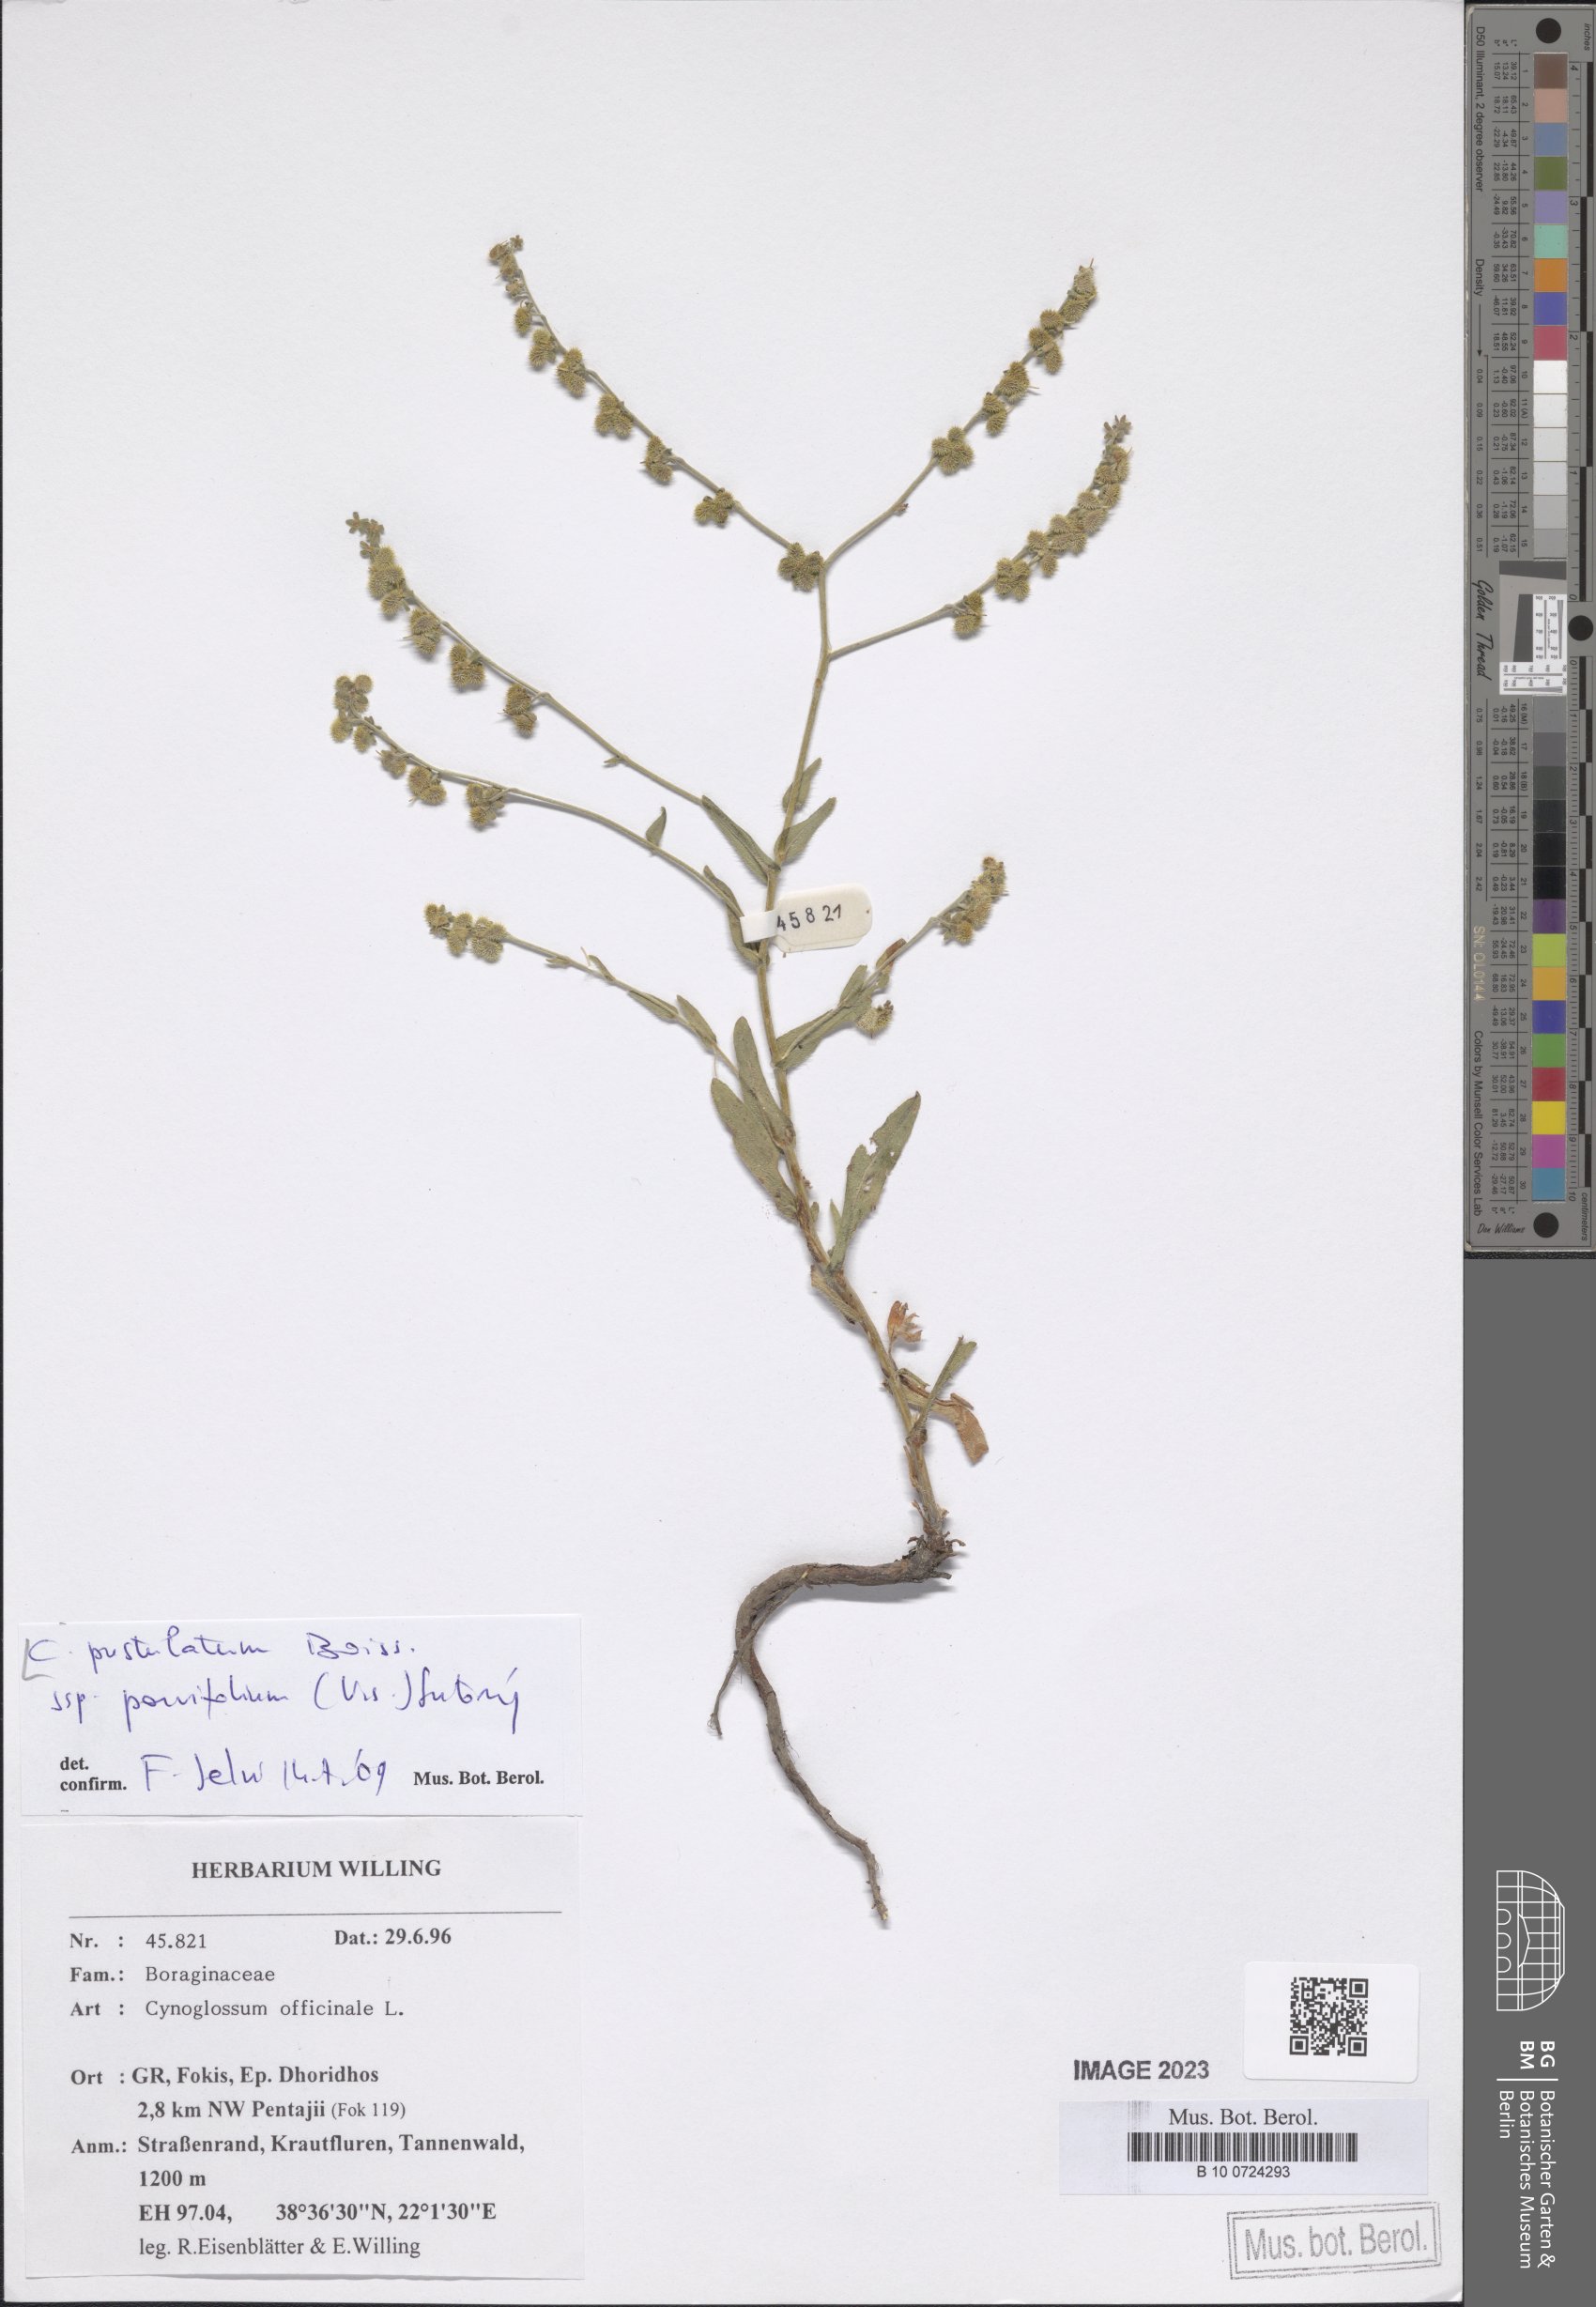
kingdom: Plantae
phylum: Tracheophyta
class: Magnoliopsida
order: Boraginales
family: Boraginaceae
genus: Cynoglossum
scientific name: Cynoglossum pustulatum
